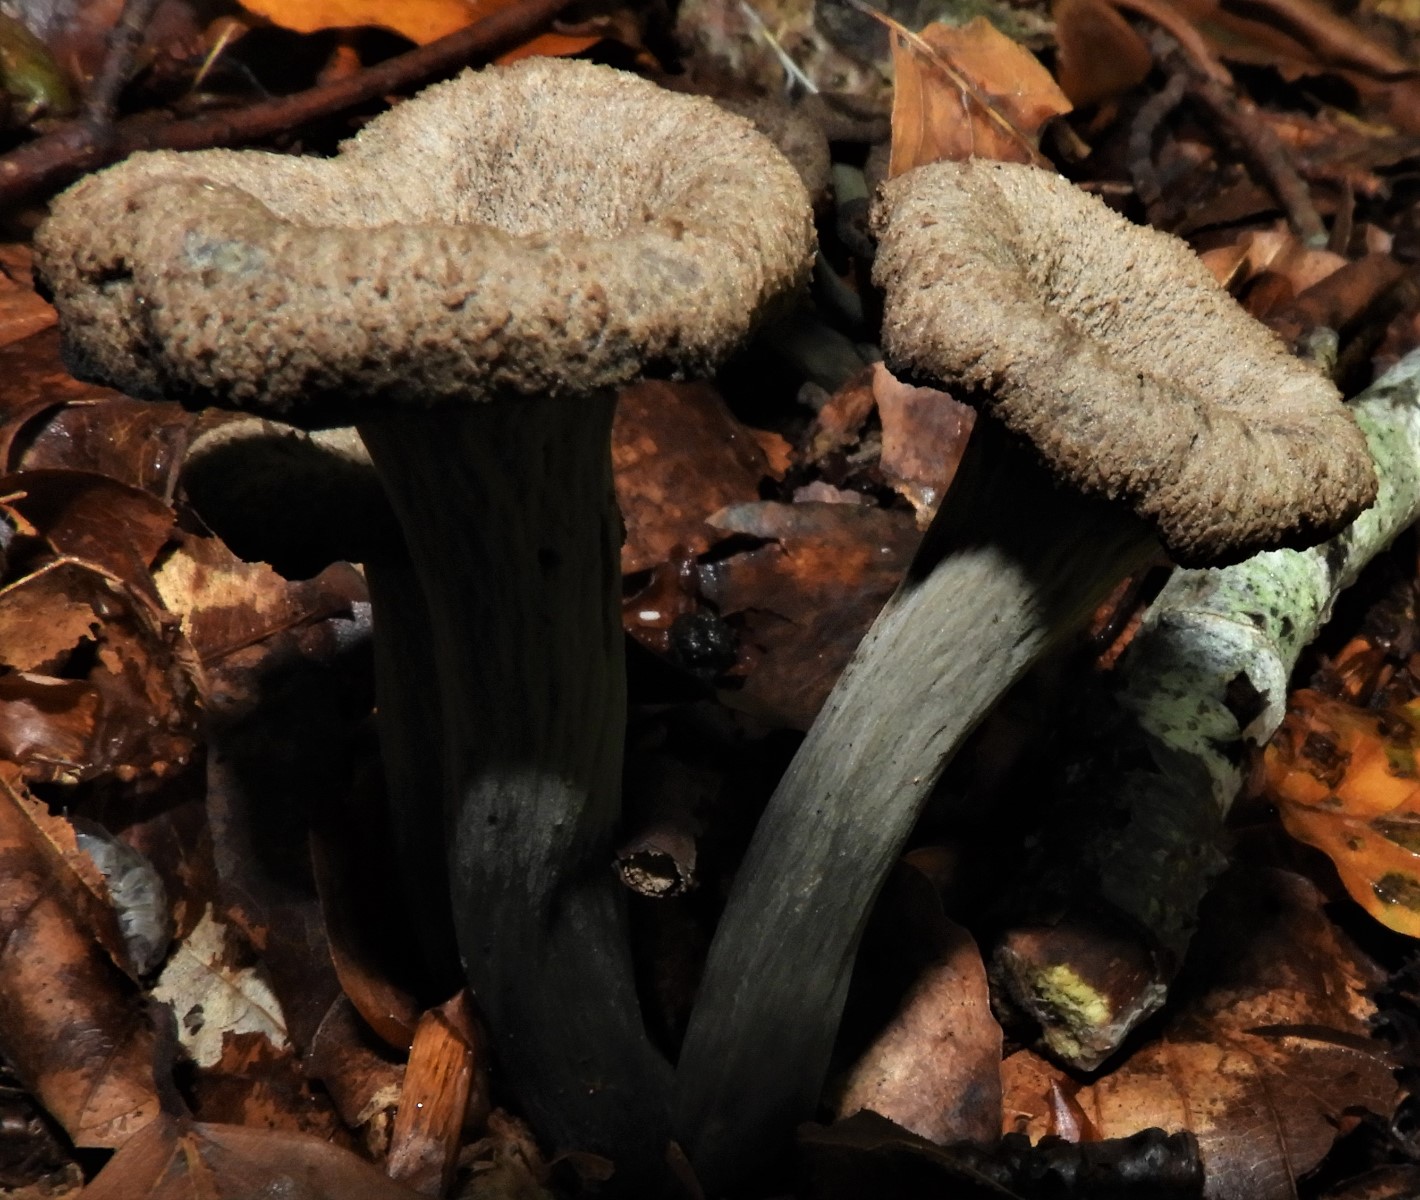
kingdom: Fungi
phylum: Basidiomycota
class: Agaricomycetes
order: Cantharellales
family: Hydnaceae
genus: Craterellus
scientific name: Craterellus cornucopioides
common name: trompetsvamp
